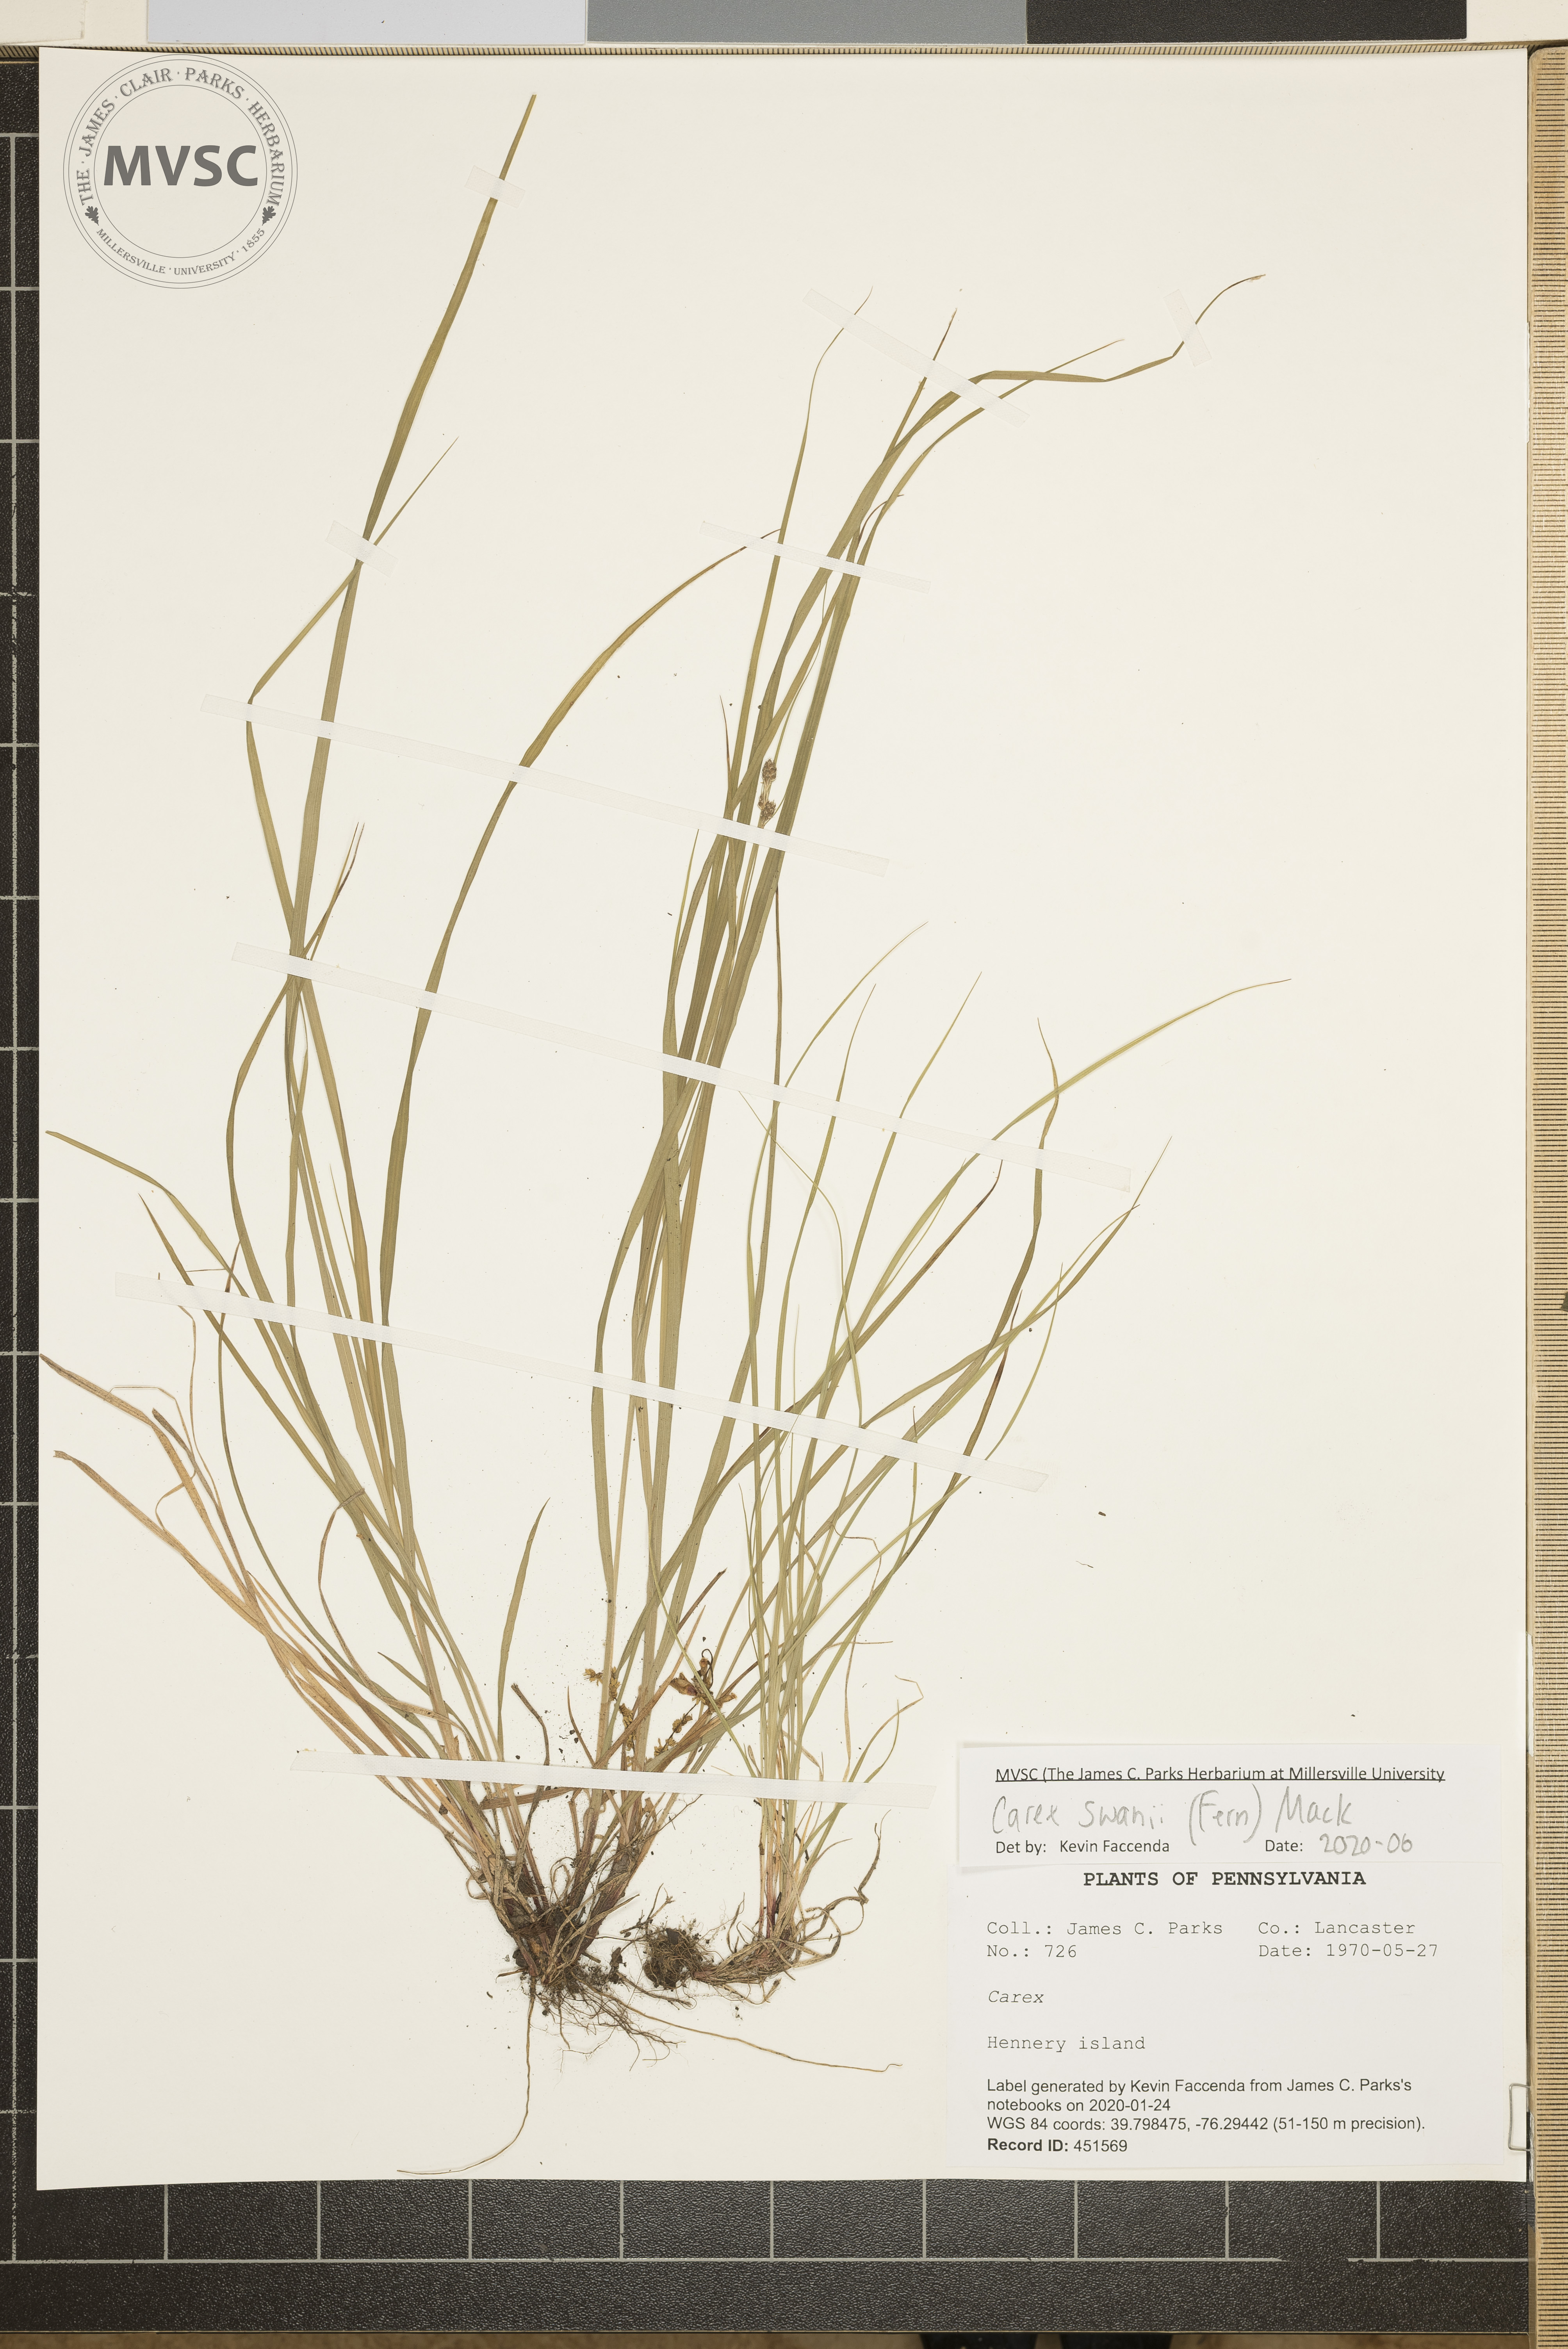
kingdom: Plantae
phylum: Tracheophyta
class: Liliopsida
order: Poales
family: Cyperaceae
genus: Carex
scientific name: Carex swanii
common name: Downy green sedge
